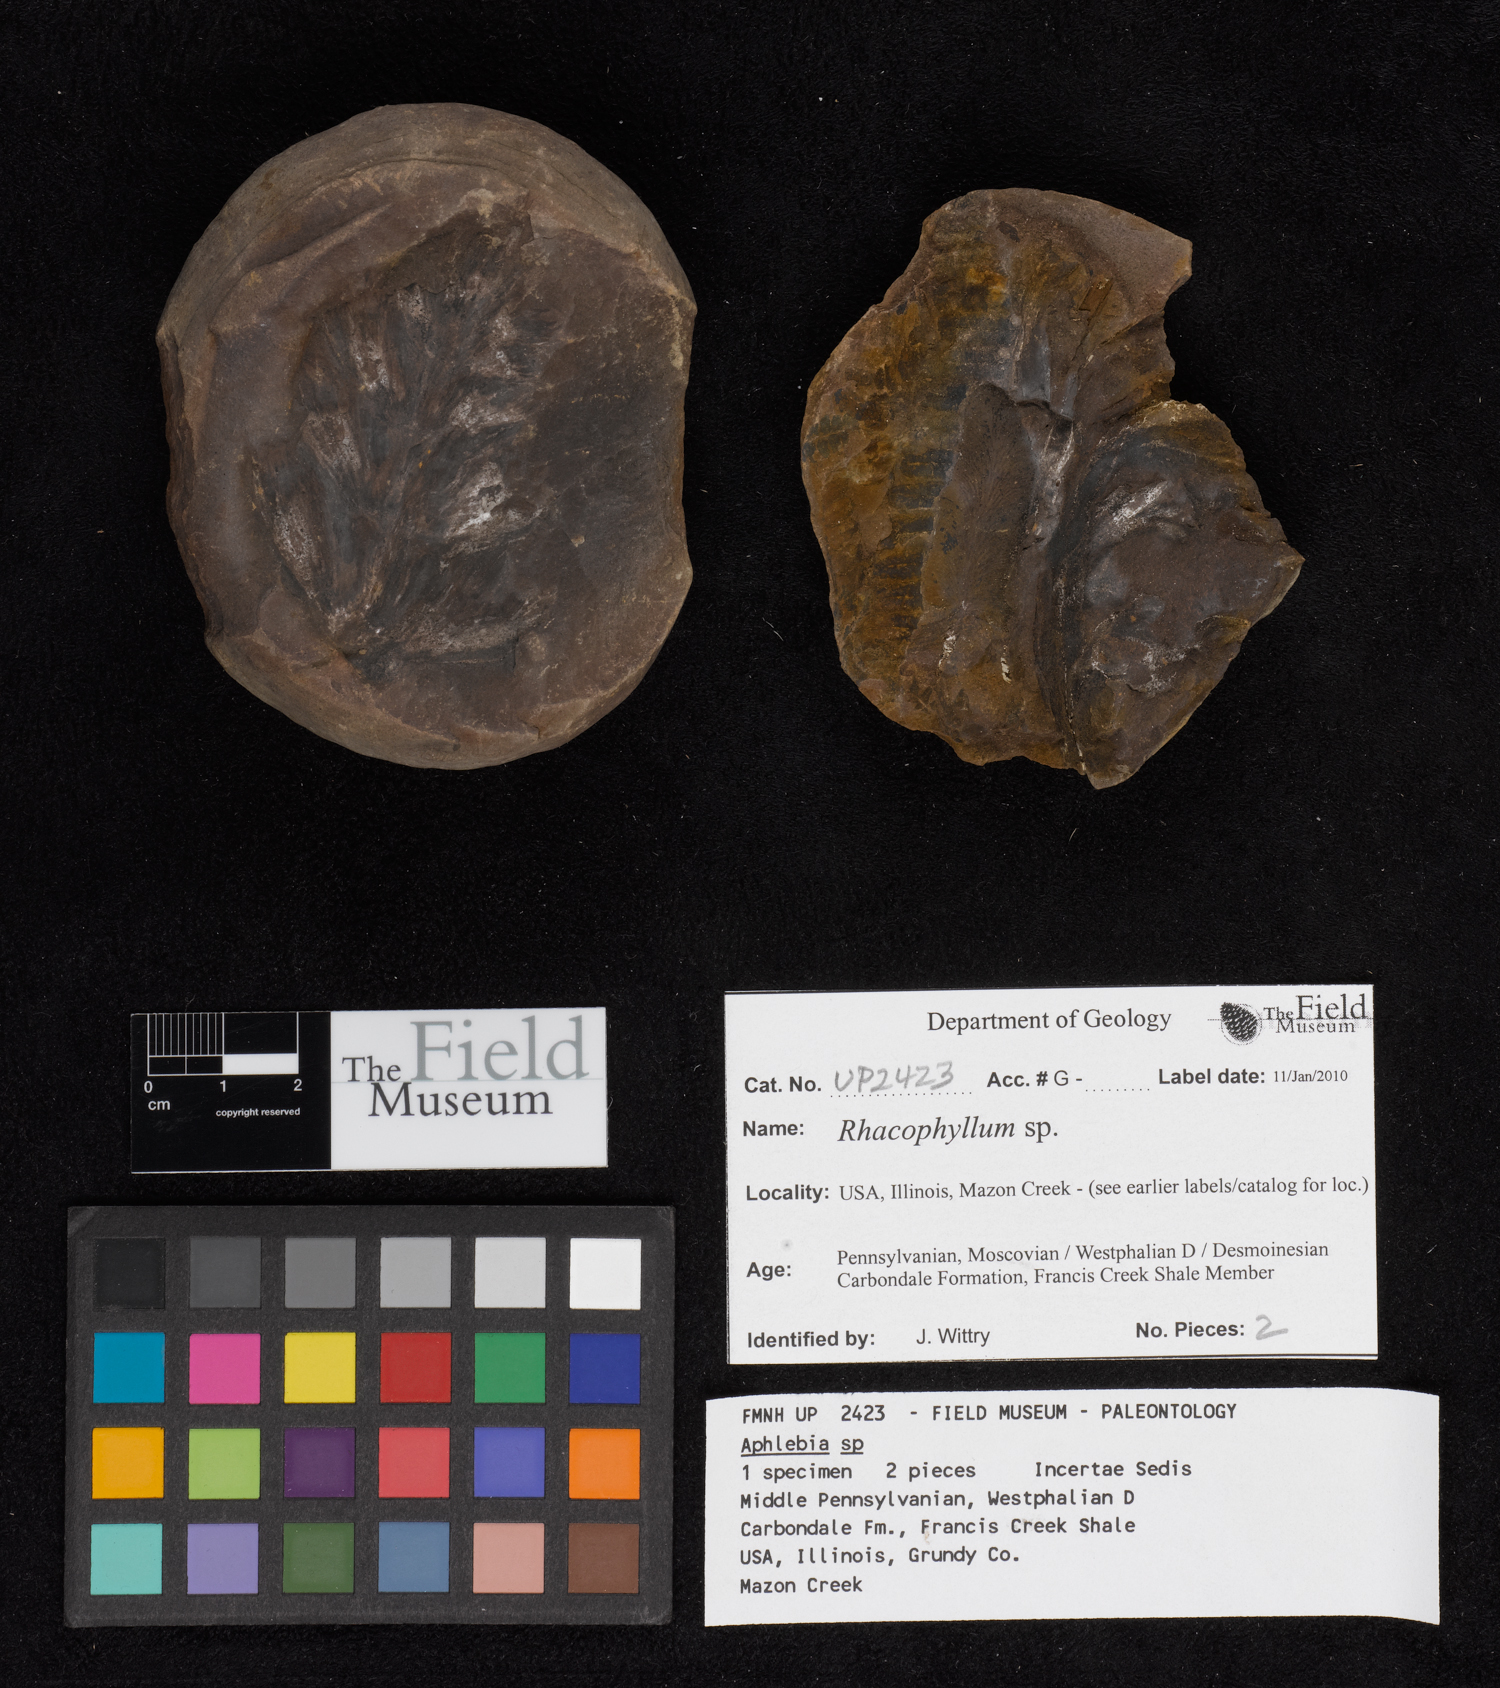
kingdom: Plantae
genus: Rhacophyllum
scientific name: Rhacophyllum
